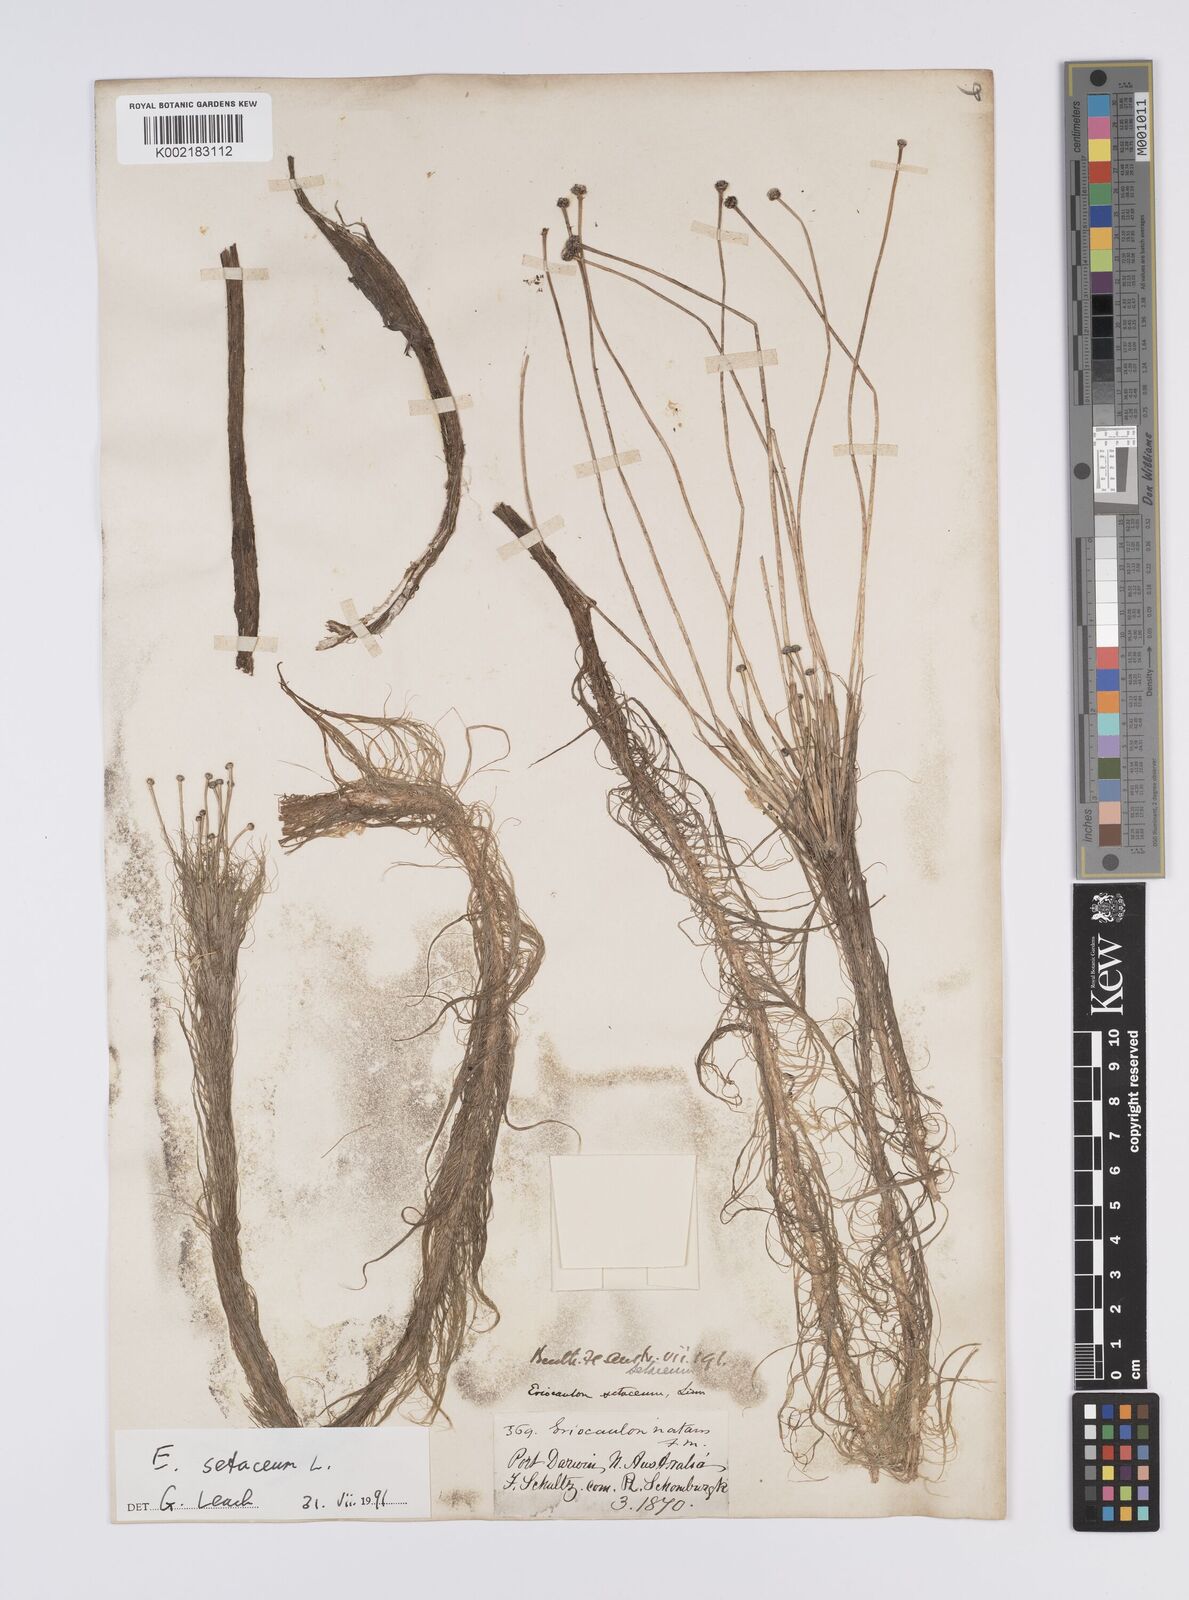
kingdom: Plantae
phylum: Tracheophyta
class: Liliopsida
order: Poales
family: Eriocaulaceae
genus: Eriocaulon
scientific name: Eriocaulon setaceum
